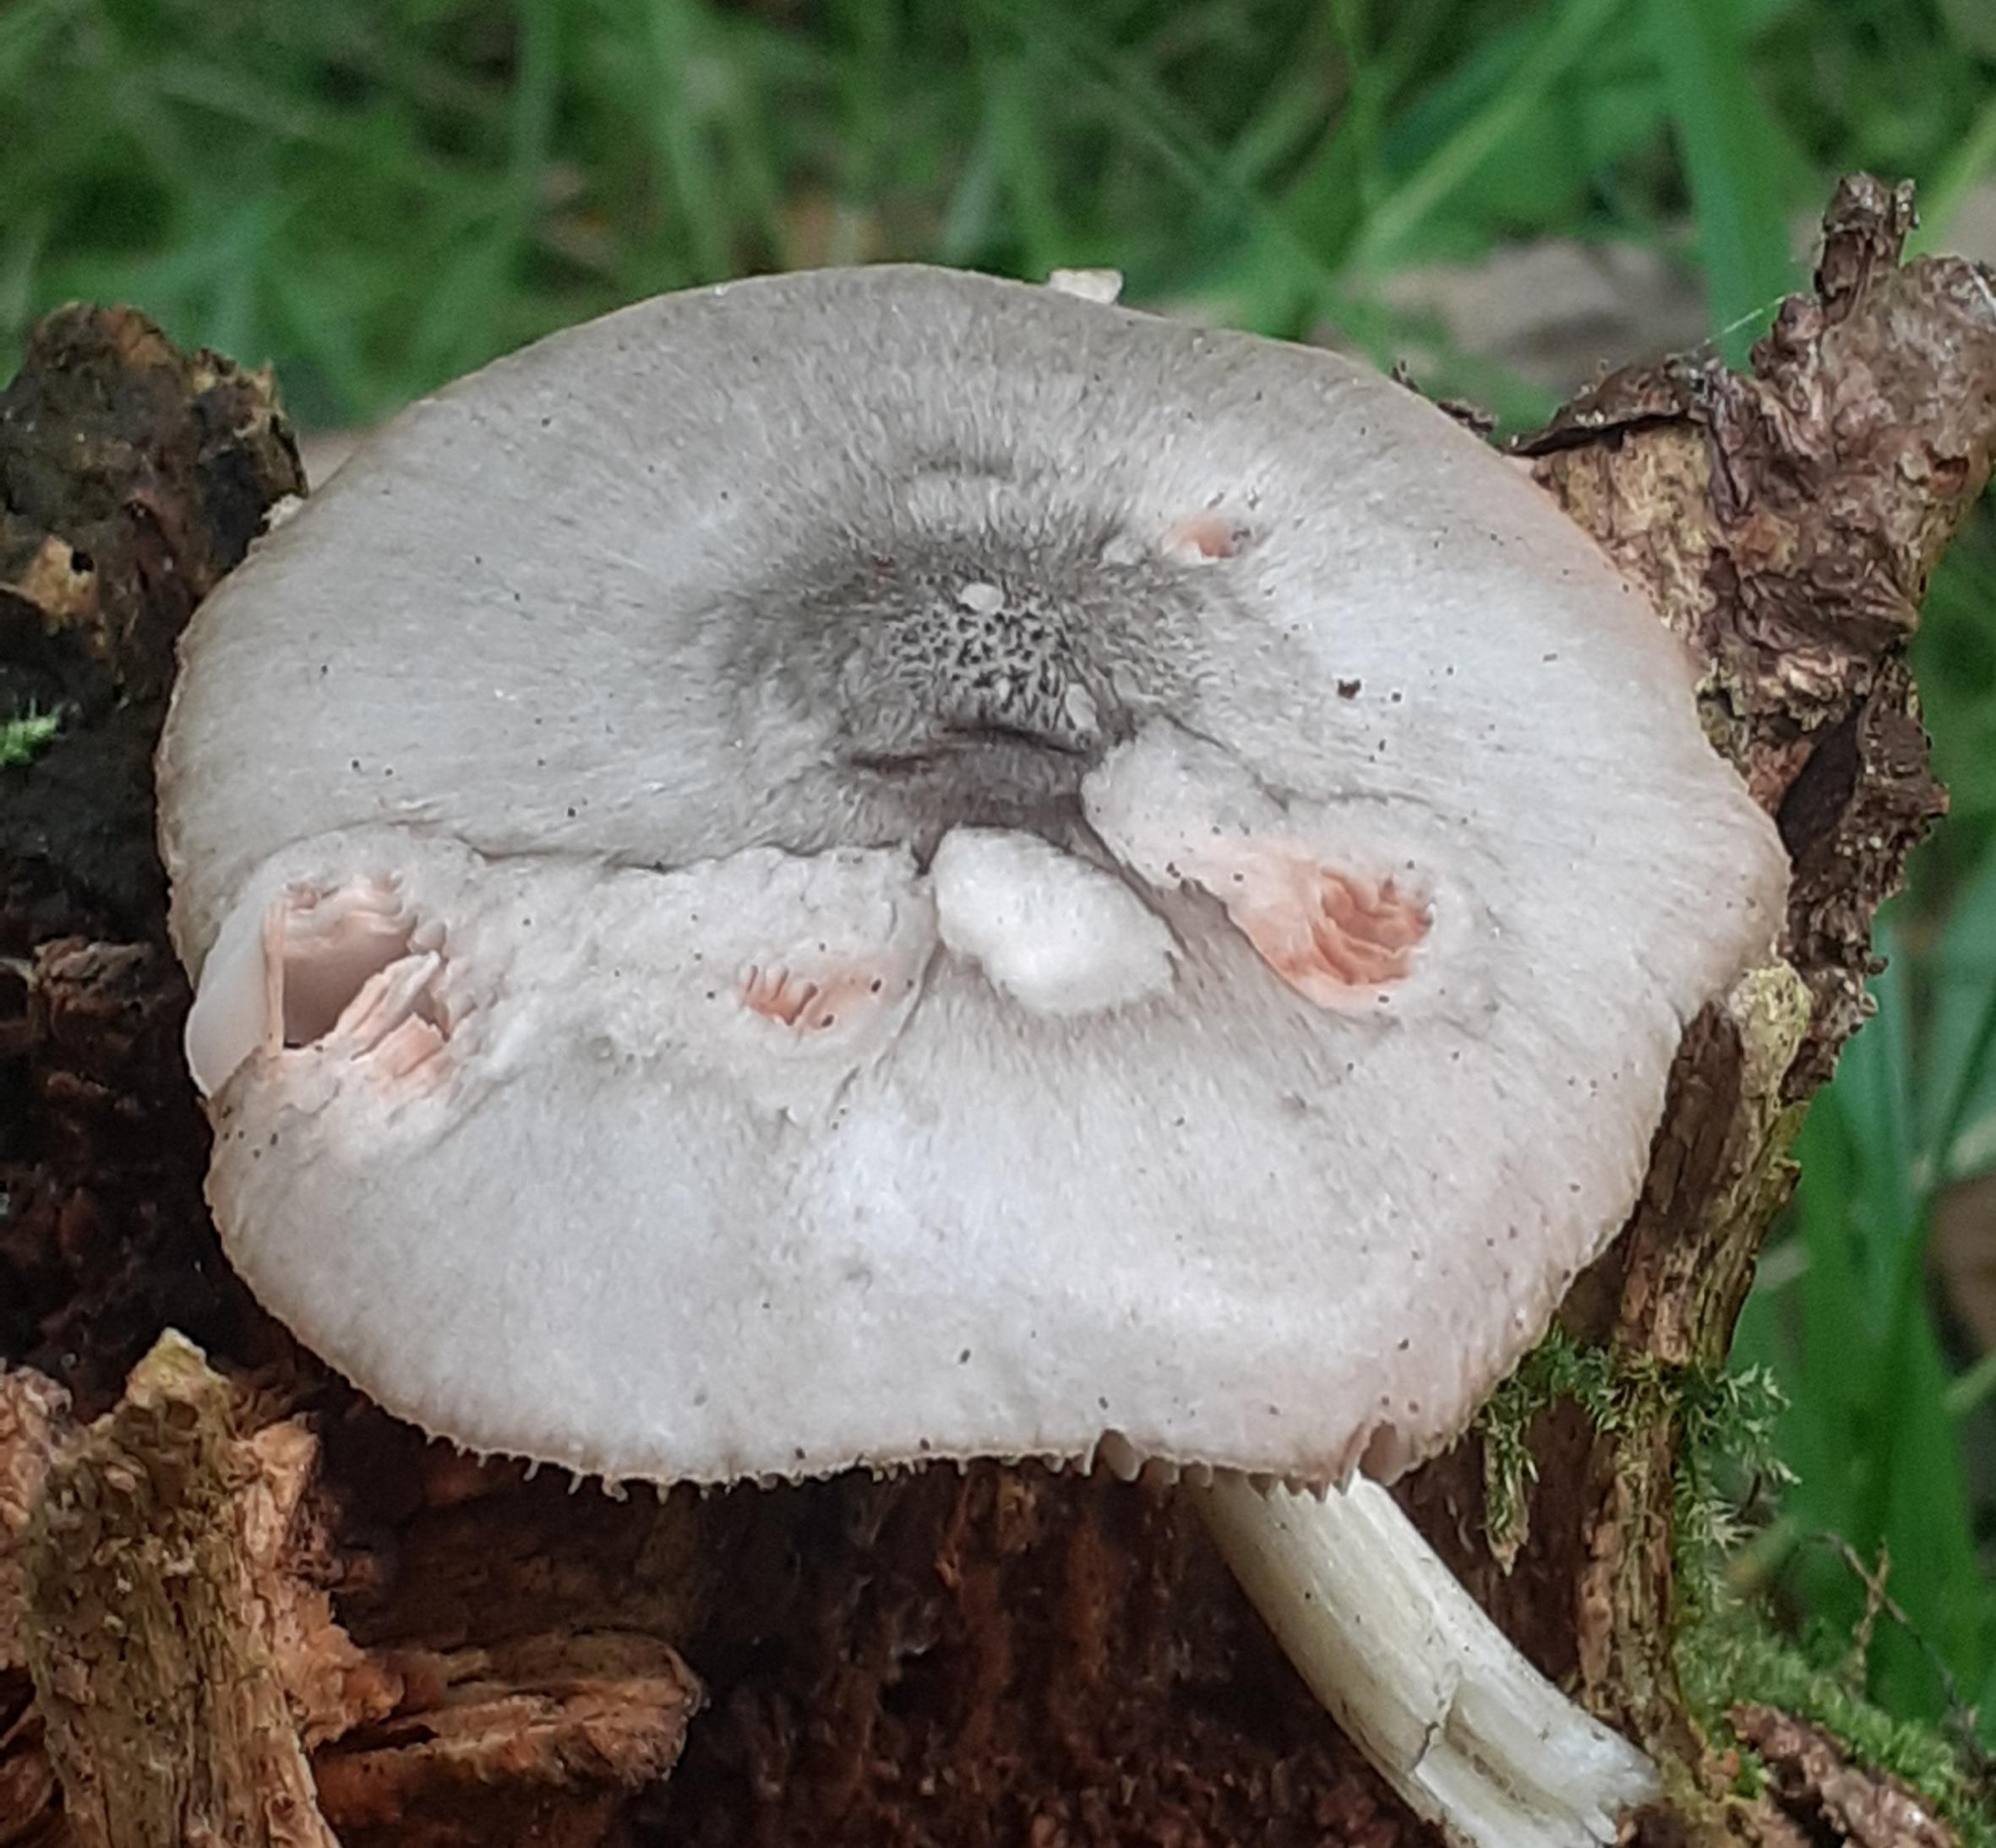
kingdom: Fungi
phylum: Basidiomycota
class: Agaricomycetes
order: Agaricales
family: Pluteaceae
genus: Pluteus
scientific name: Pluteus salicinus
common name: stiv skærmhat
